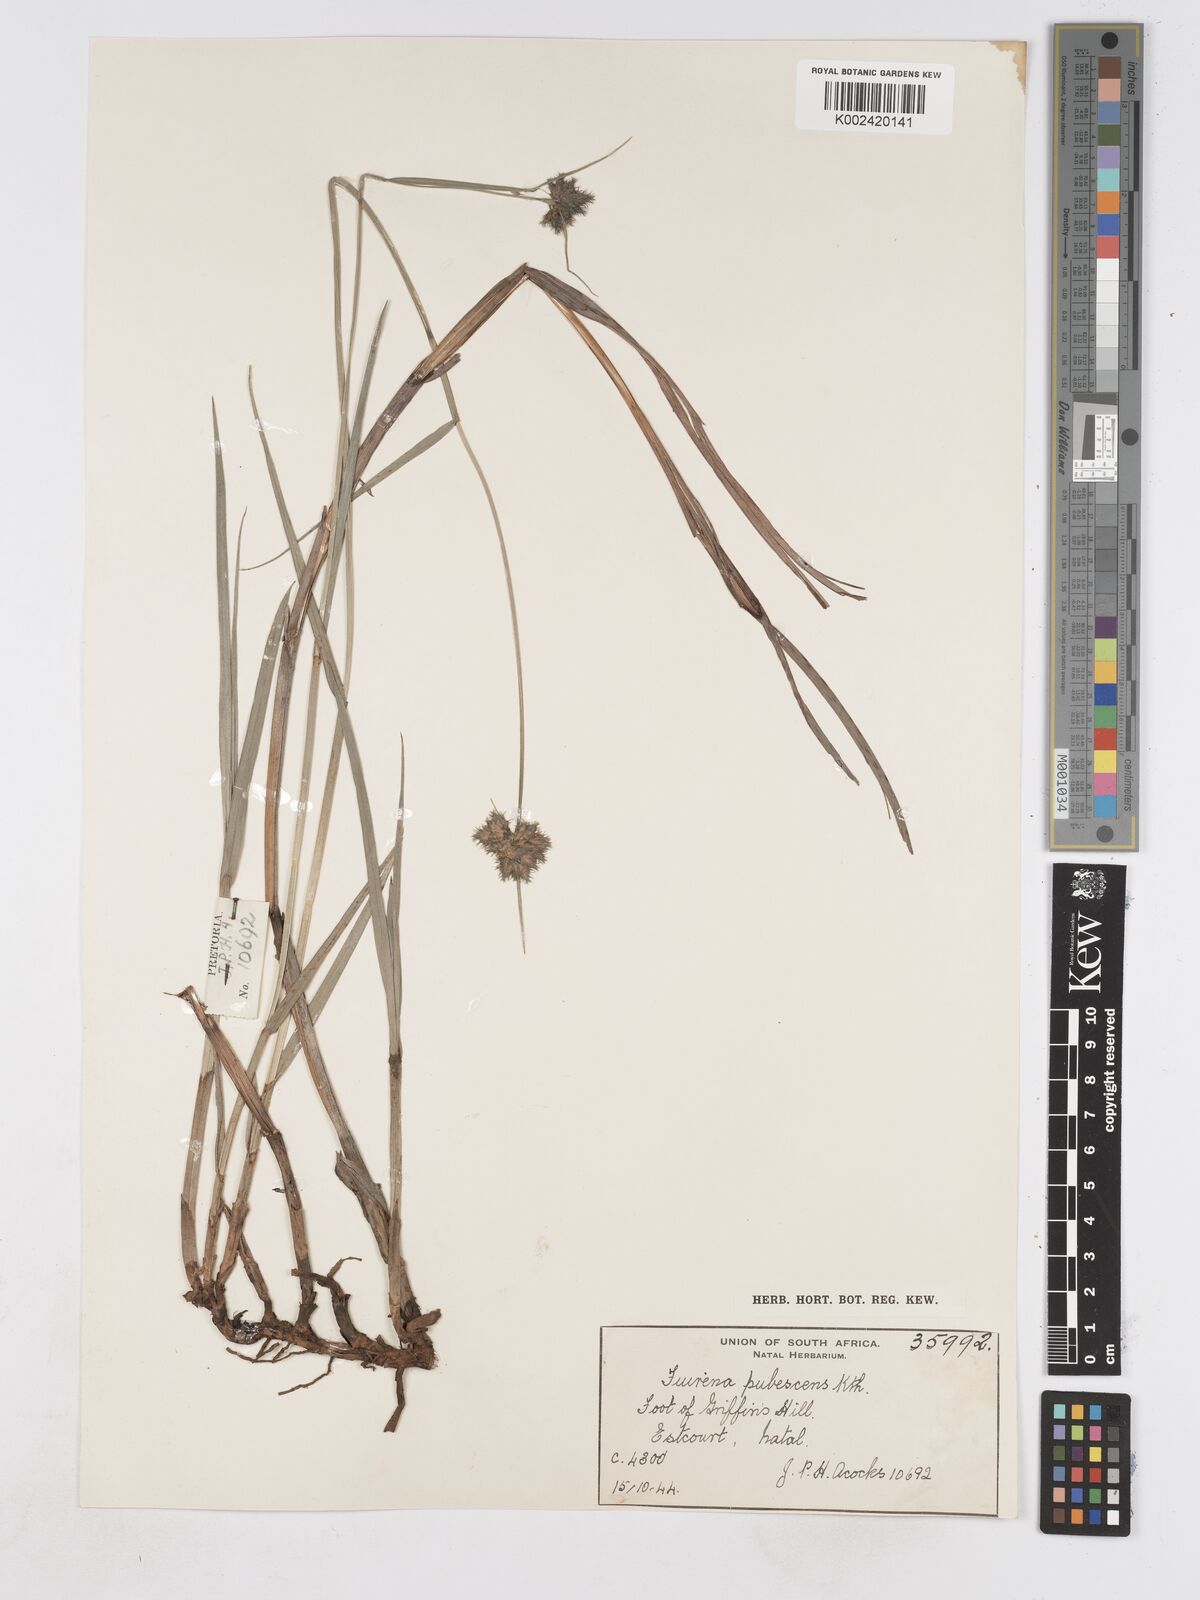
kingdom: Plantae
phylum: Tracheophyta
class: Liliopsida
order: Poales
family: Cyperaceae
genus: Fuirena
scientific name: Fuirena pubescens
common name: Hairy sedge
